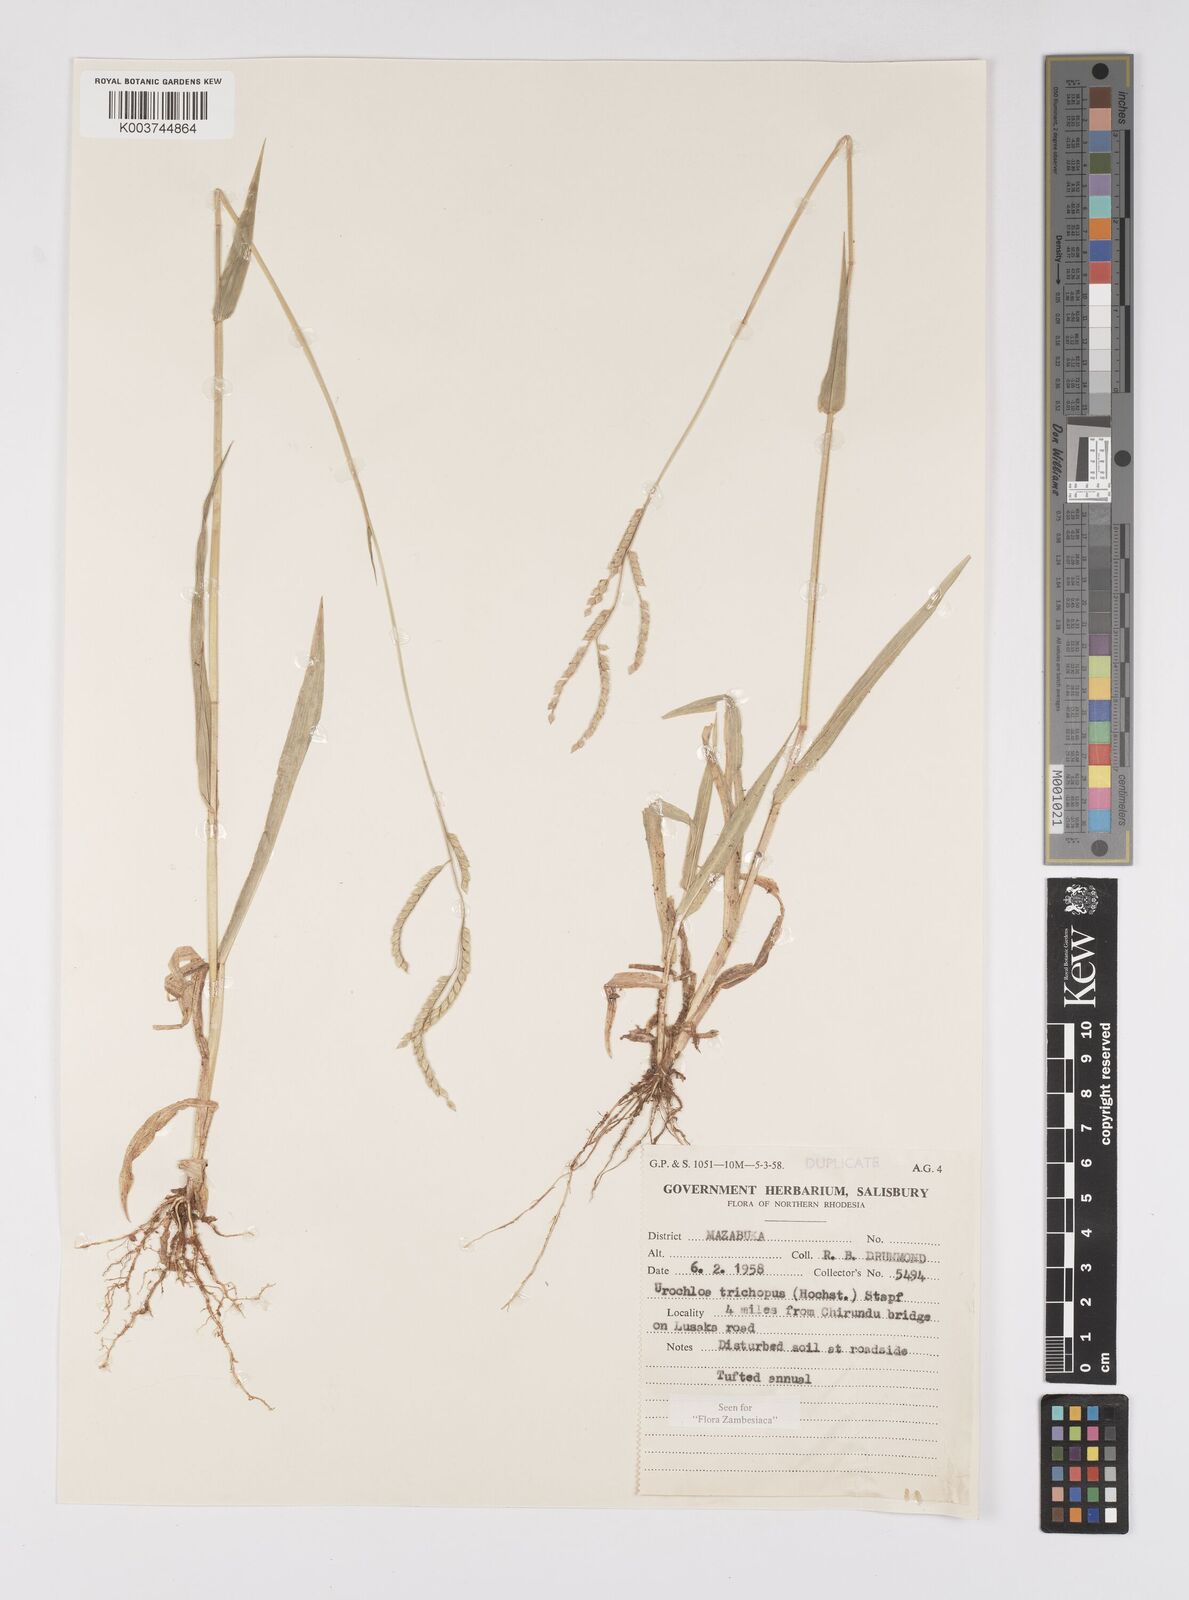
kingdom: Plantae
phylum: Tracheophyta
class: Liliopsida
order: Poales
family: Poaceae
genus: Urochloa
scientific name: Urochloa trichopus
